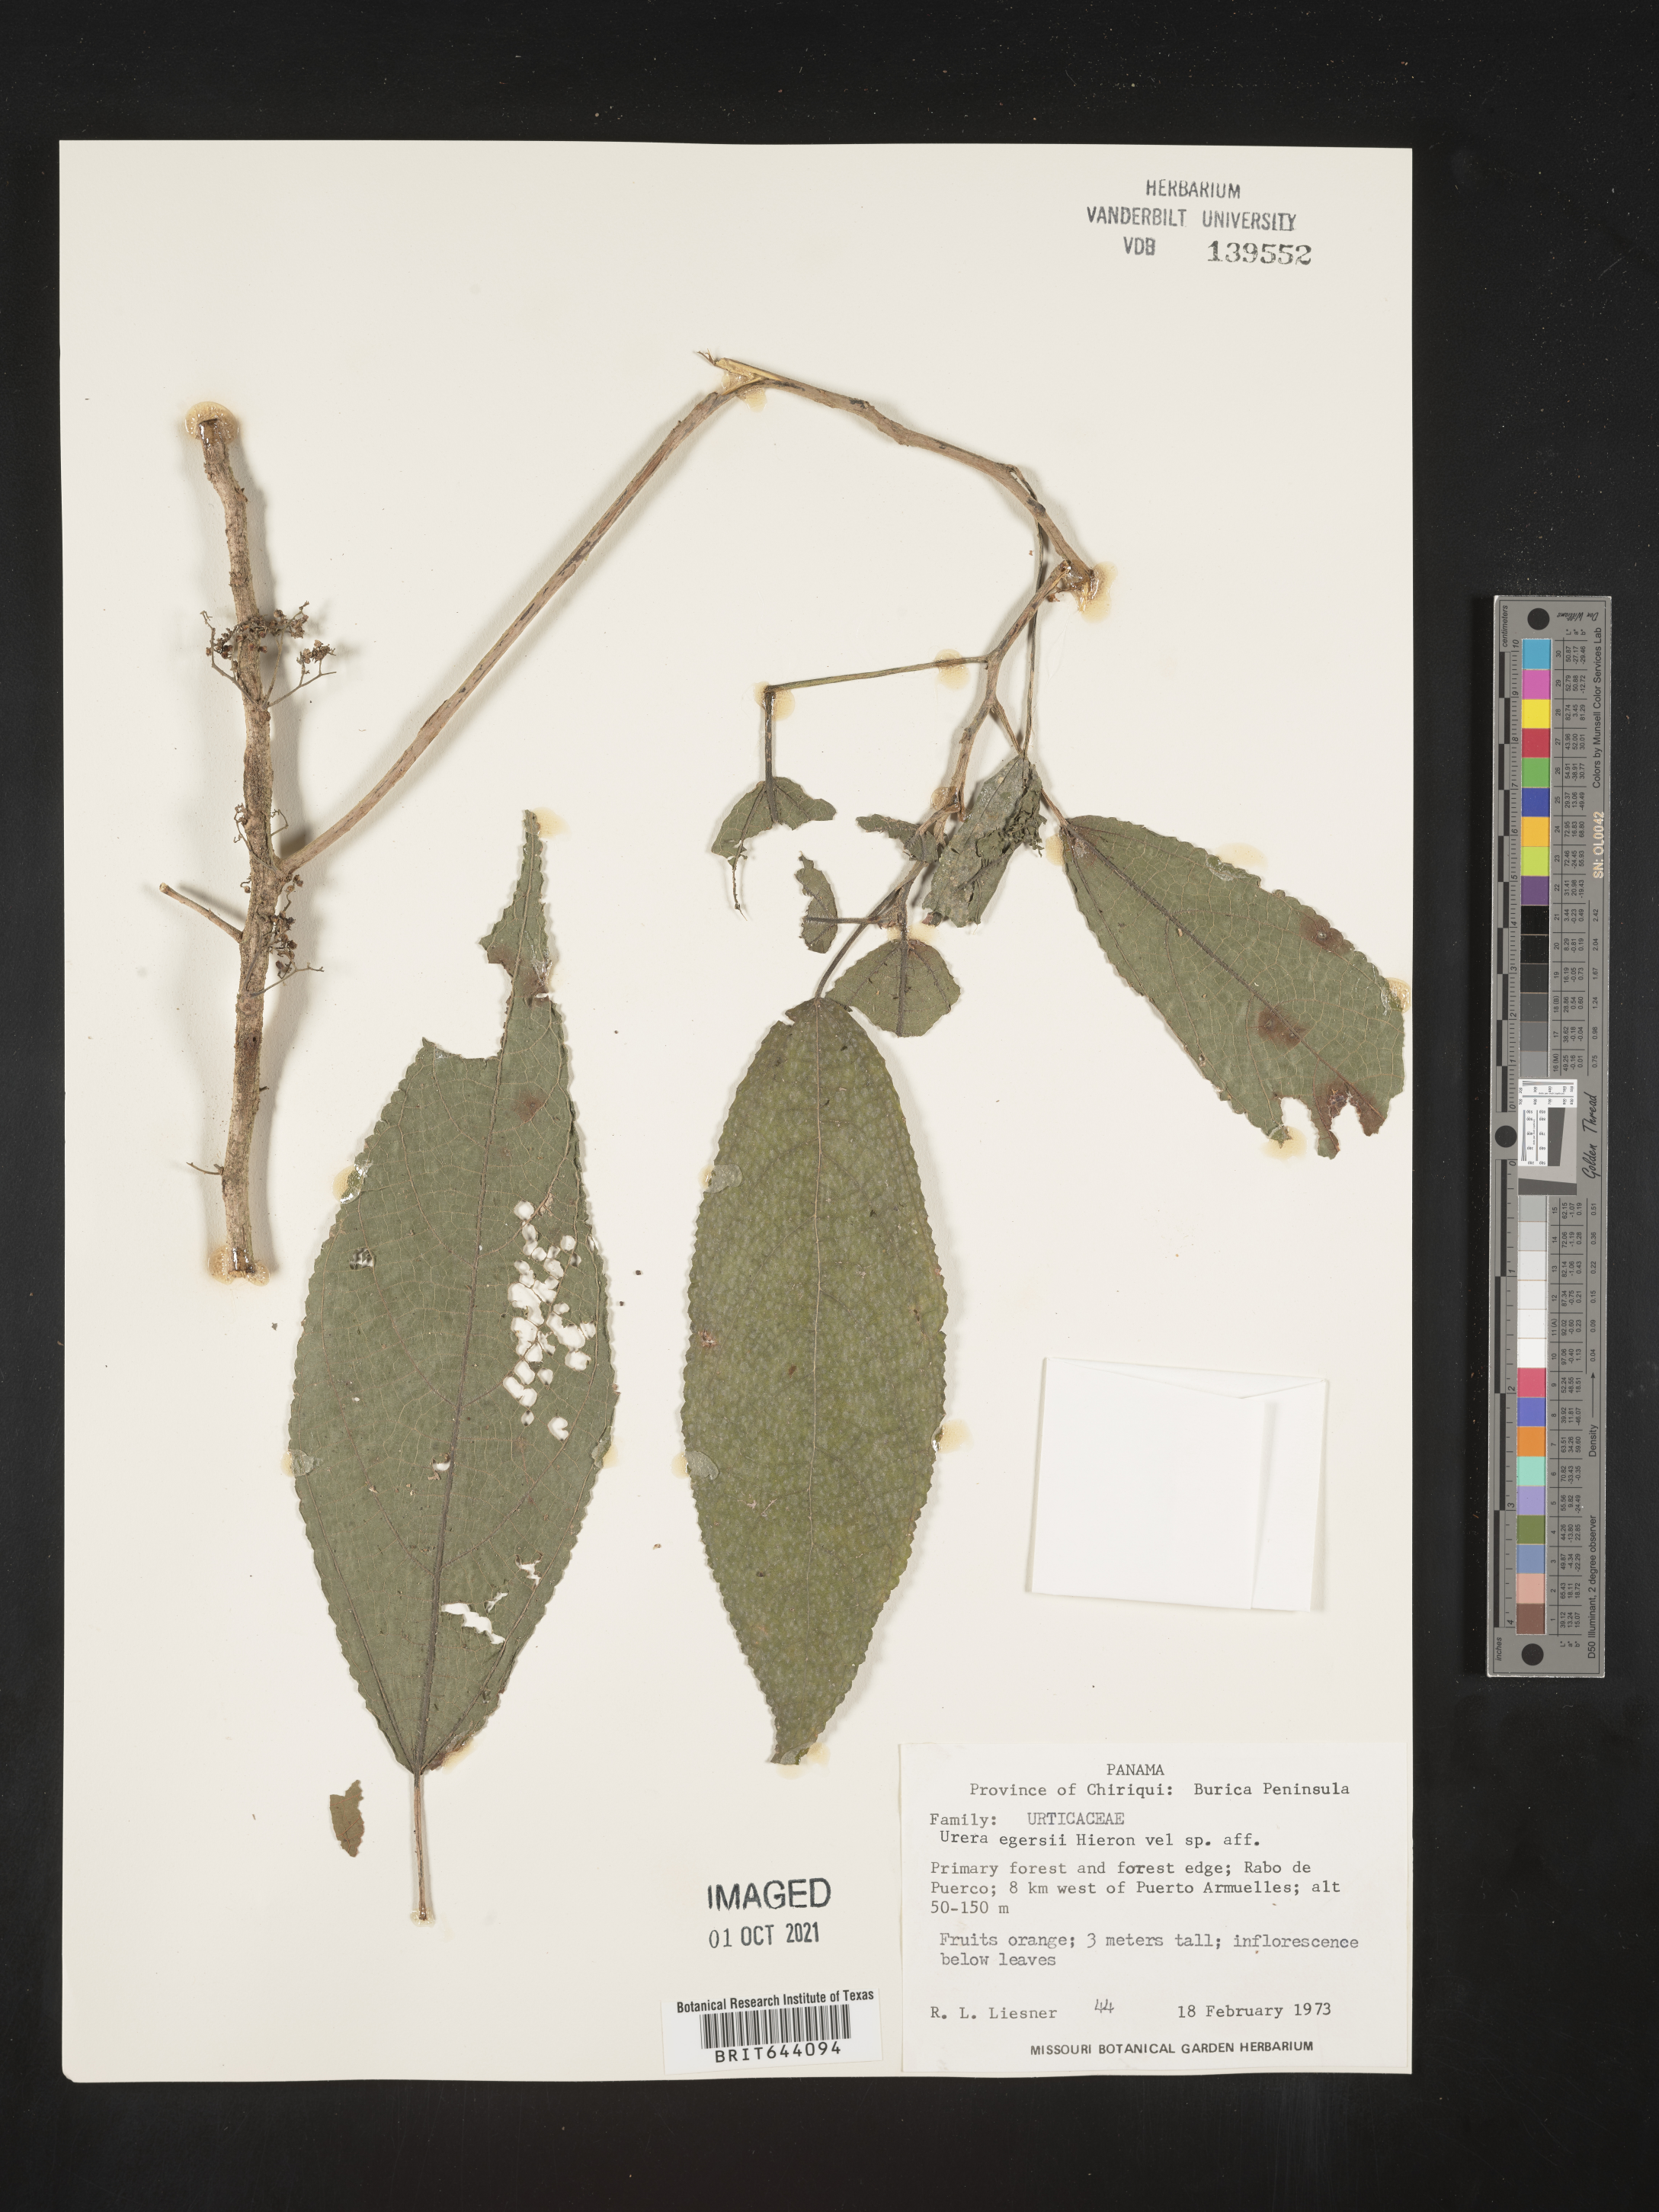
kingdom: Plantae
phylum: Tracheophyta
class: Magnoliopsida
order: Rosales
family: Urticaceae
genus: Urera
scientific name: Urera
